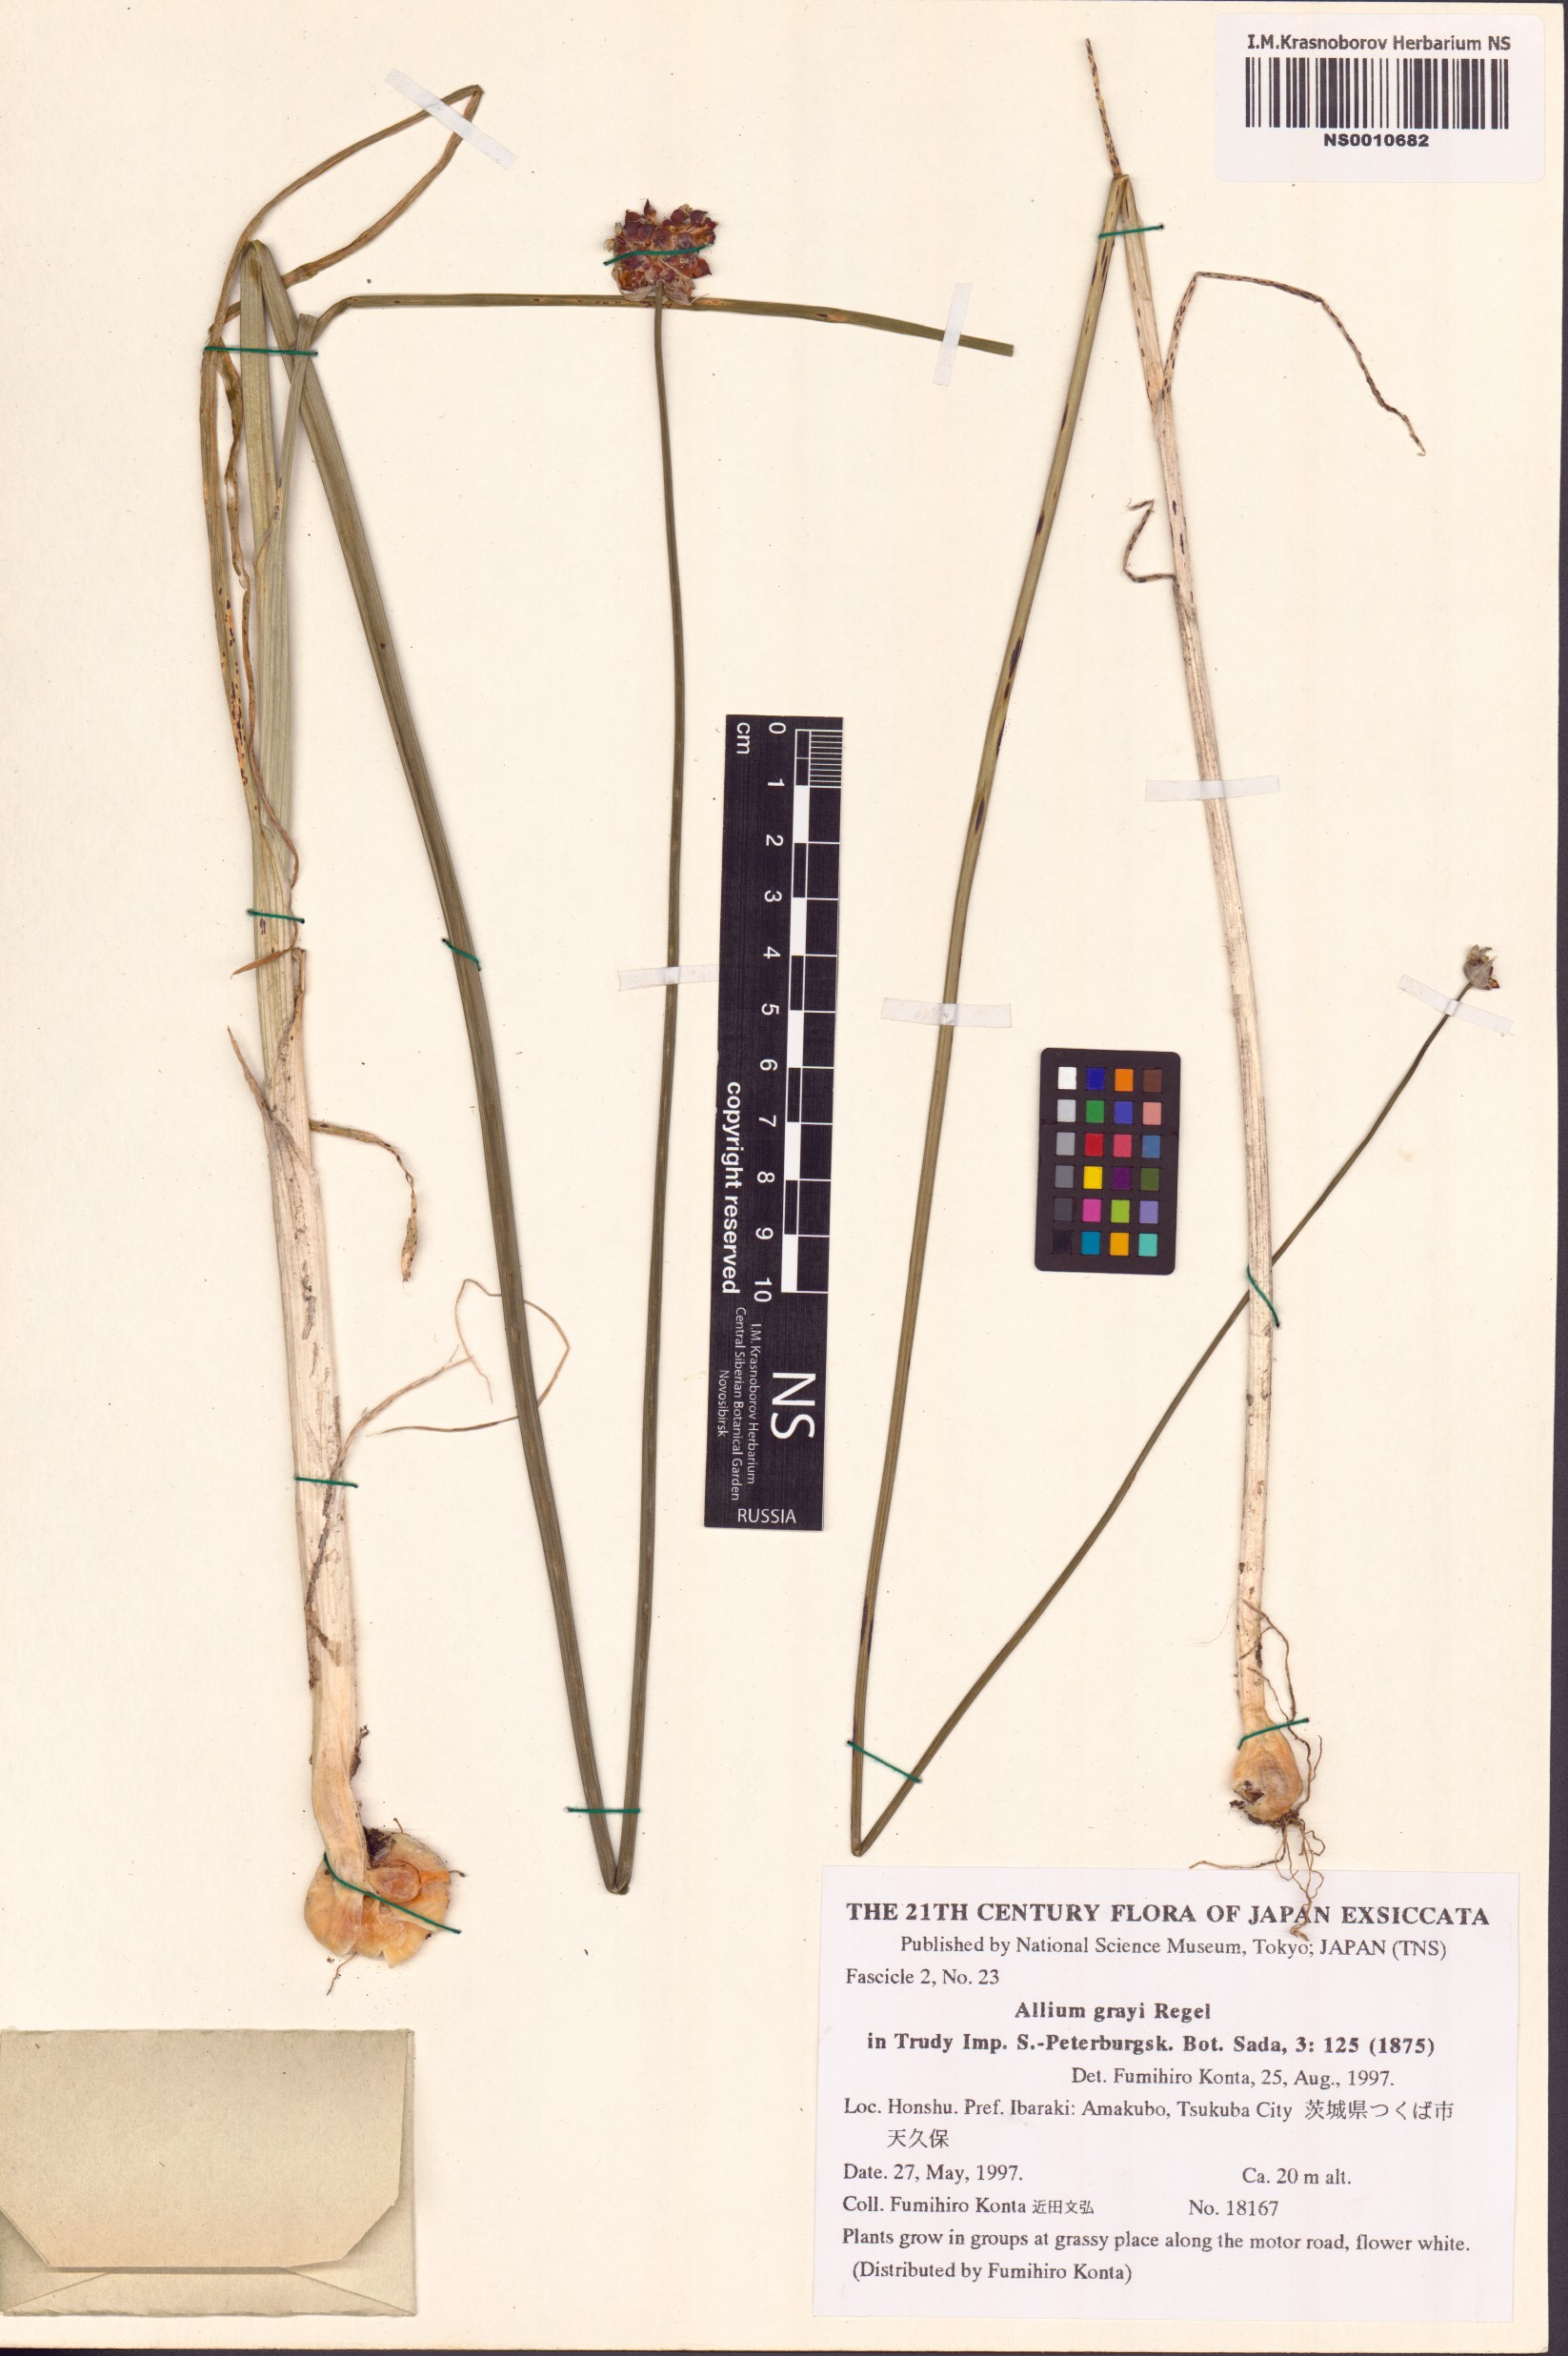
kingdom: Plantae
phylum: Tracheophyta
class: Liliopsida
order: Asparagales
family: Amaryllidaceae
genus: Allium
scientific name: Allium macrostemon
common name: Chinese garlic
